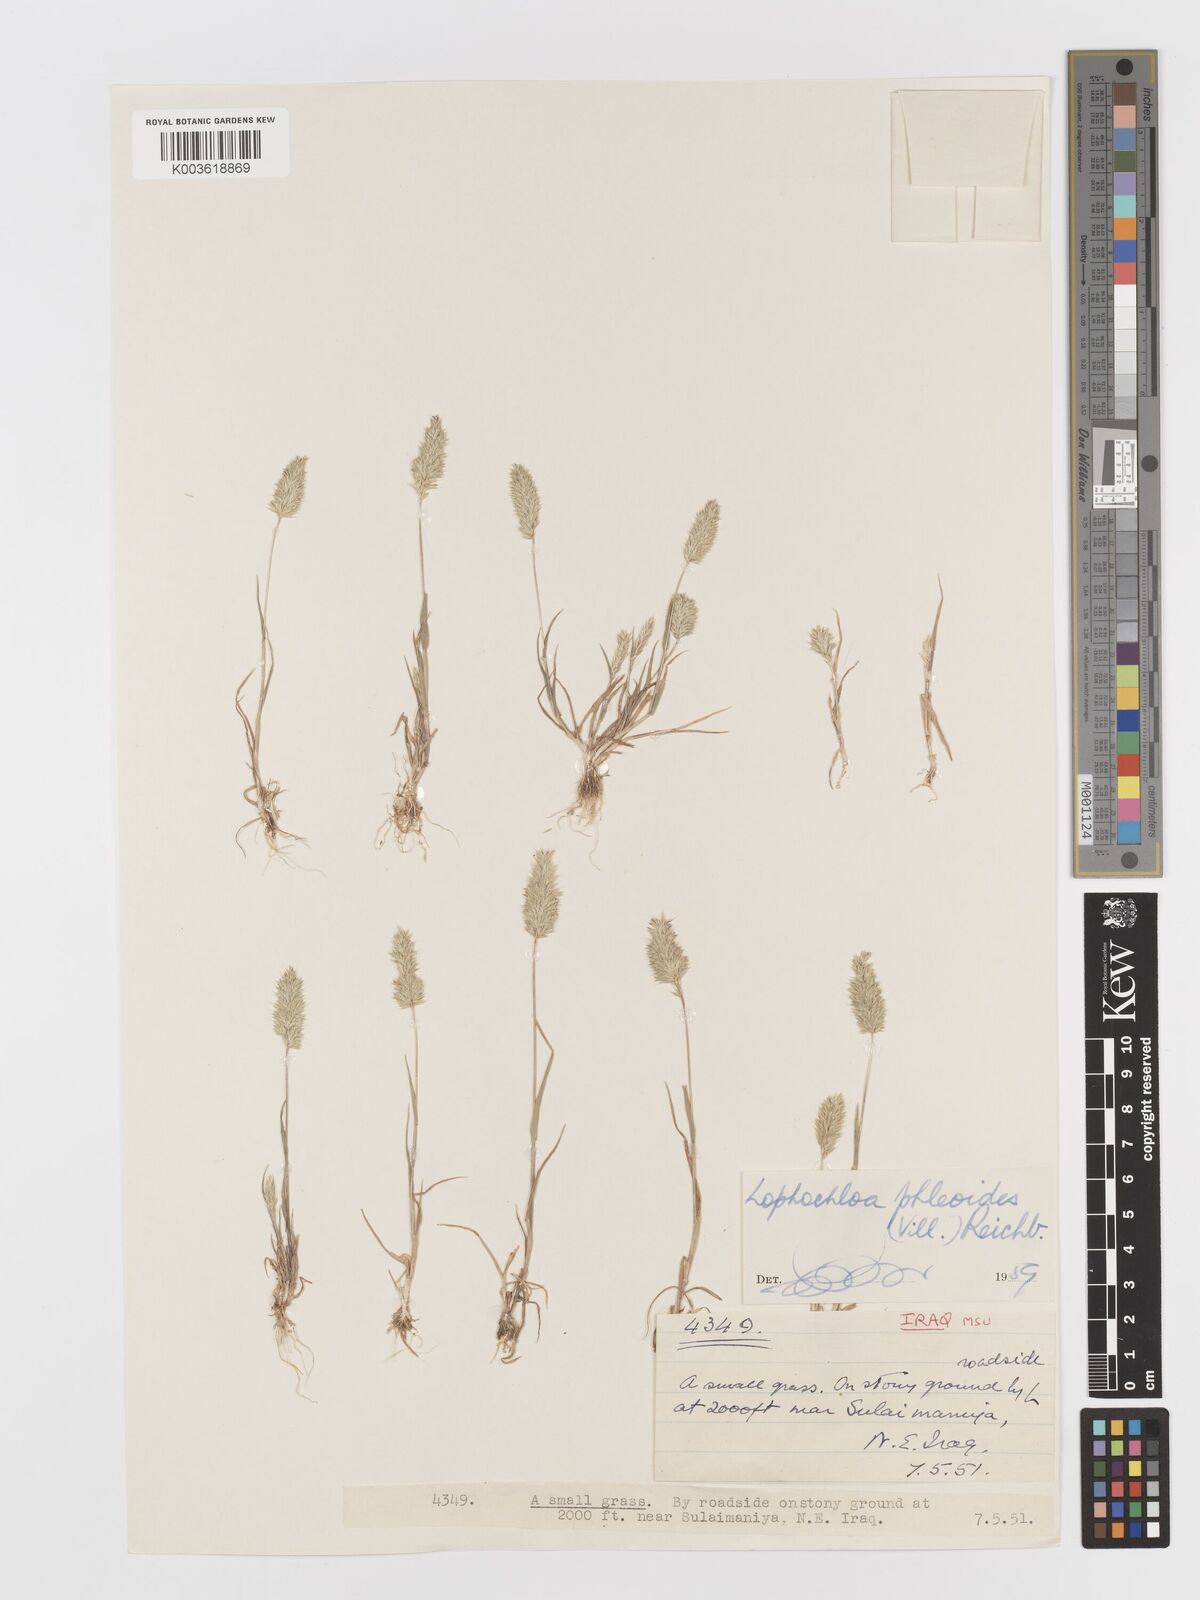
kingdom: Plantae
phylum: Tracheophyta
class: Liliopsida
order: Poales
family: Poaceae
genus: Rostraria
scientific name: Rostraria cristata
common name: Mediterranean hair-grass
